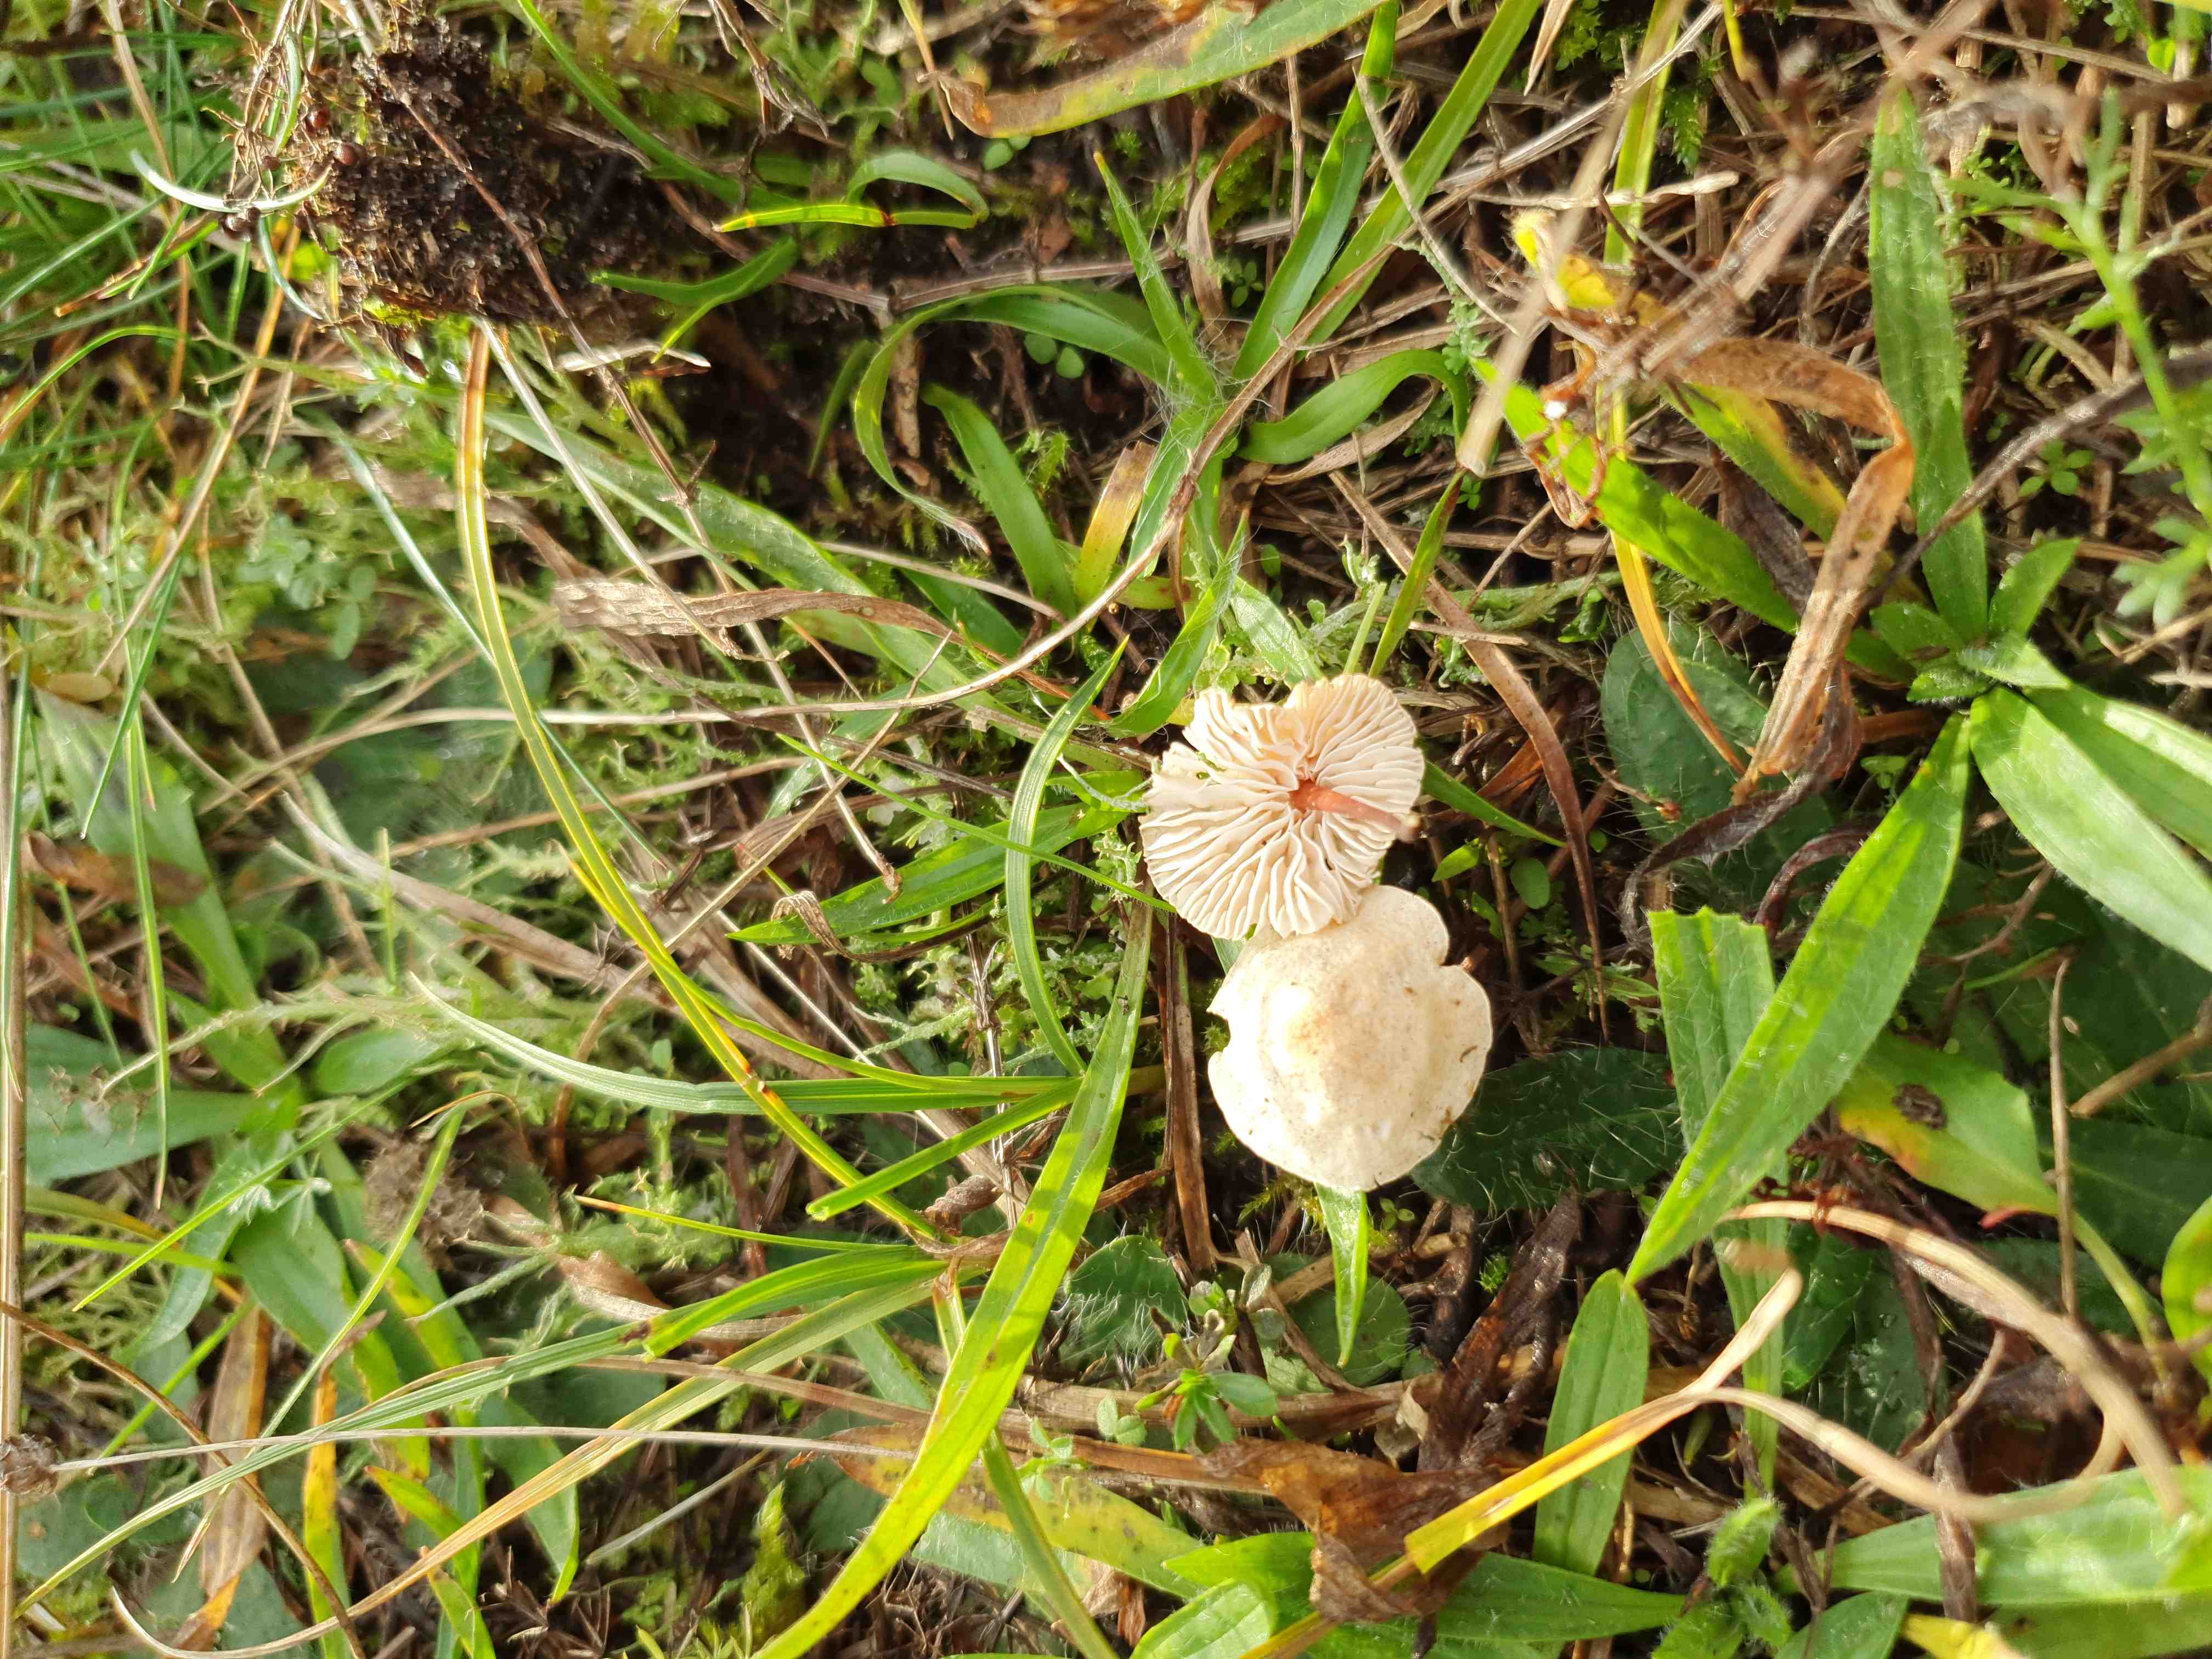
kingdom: Fungi
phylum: Basidiomycota
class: Agaricomycetes
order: Agaricales
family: Omphalotaceae
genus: Mycetinis
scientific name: Mycetinis scorodonius
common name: lille løghat
